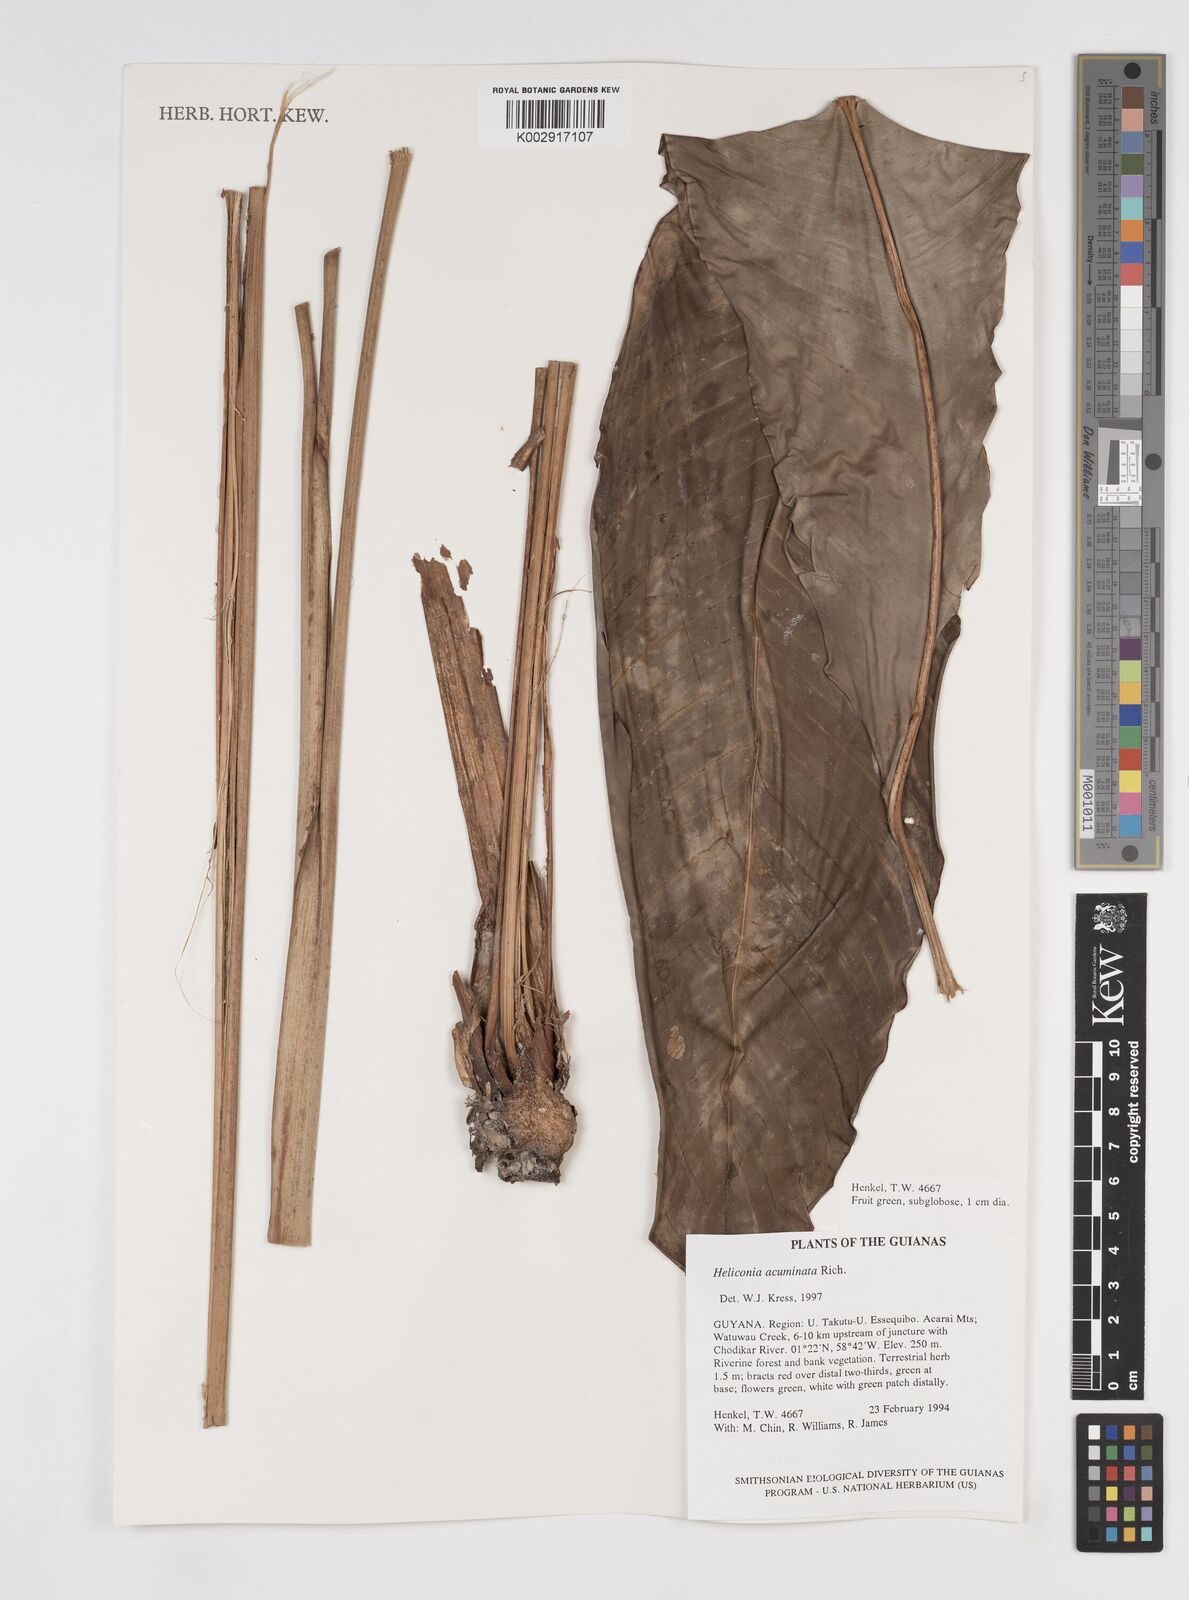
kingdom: Plantae
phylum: Tracheophyta
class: Liliopsida
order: Zingiberales
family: Heliconiaceae
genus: Heliconia
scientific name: Heliconia acuminata
